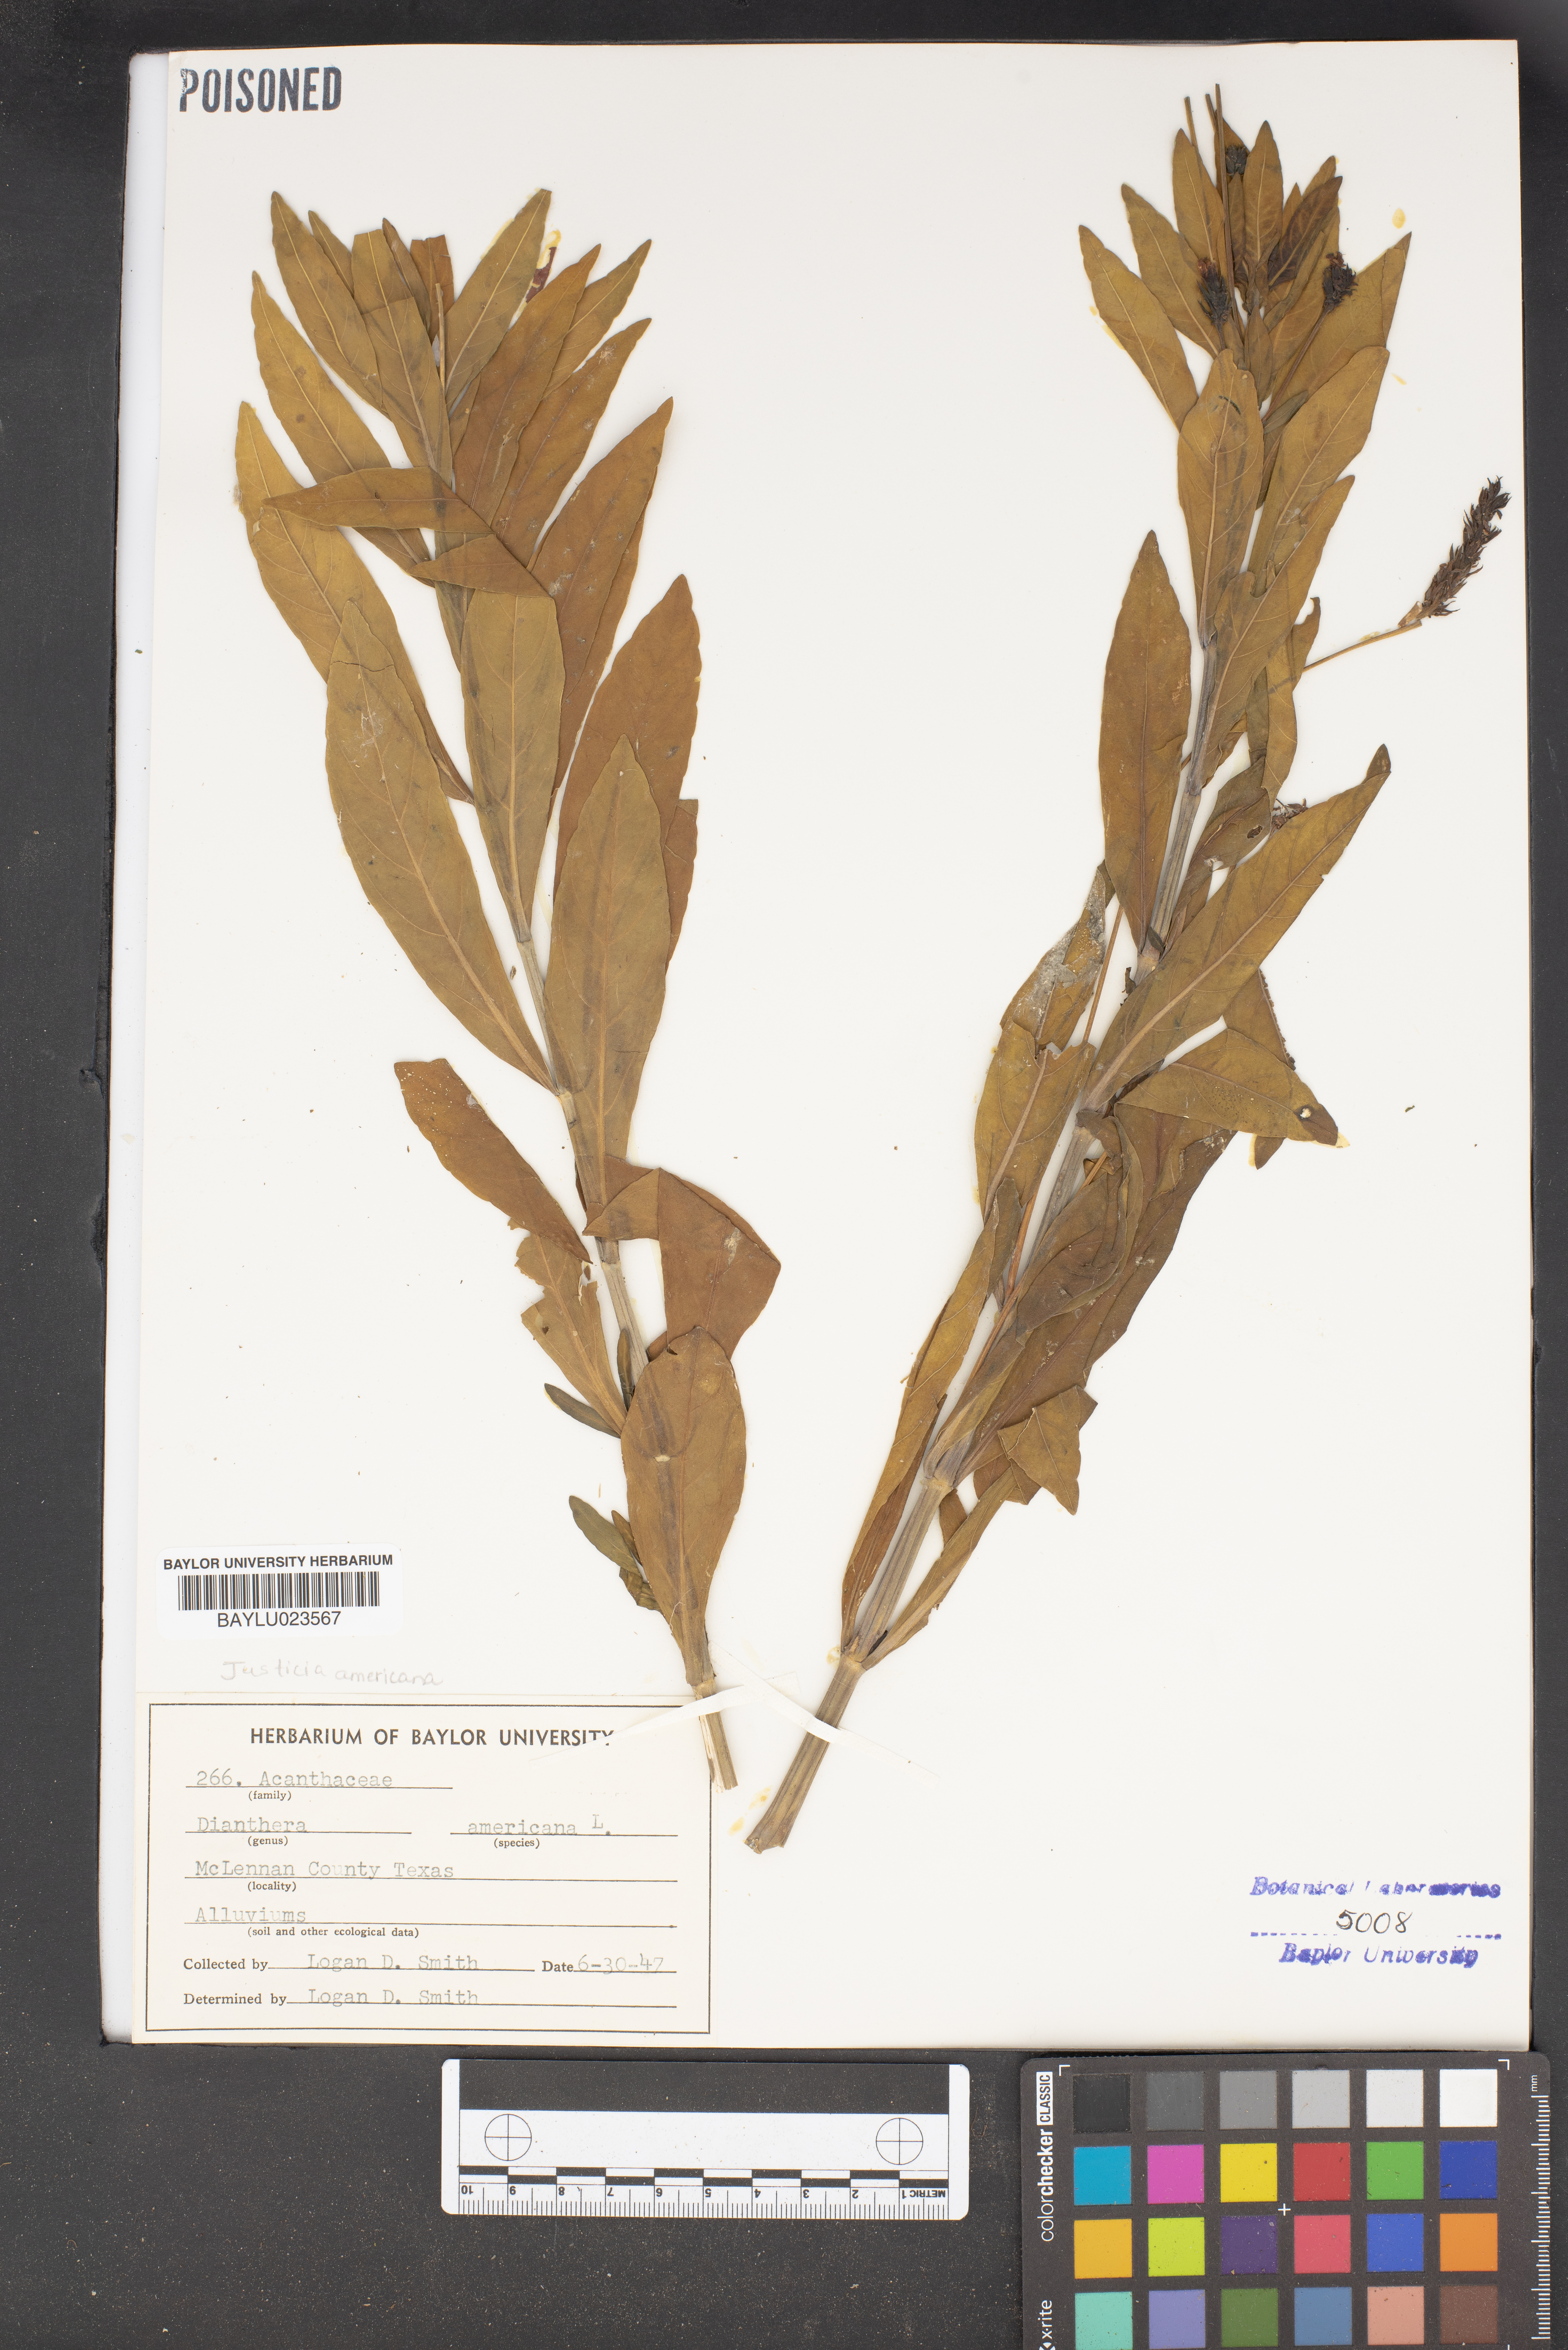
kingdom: Plantae
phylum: Tracheophyta
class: Magnoliopsida
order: Lamiales
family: Acanthaceae
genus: Rostellularia
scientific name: Rostellularia procumbens
